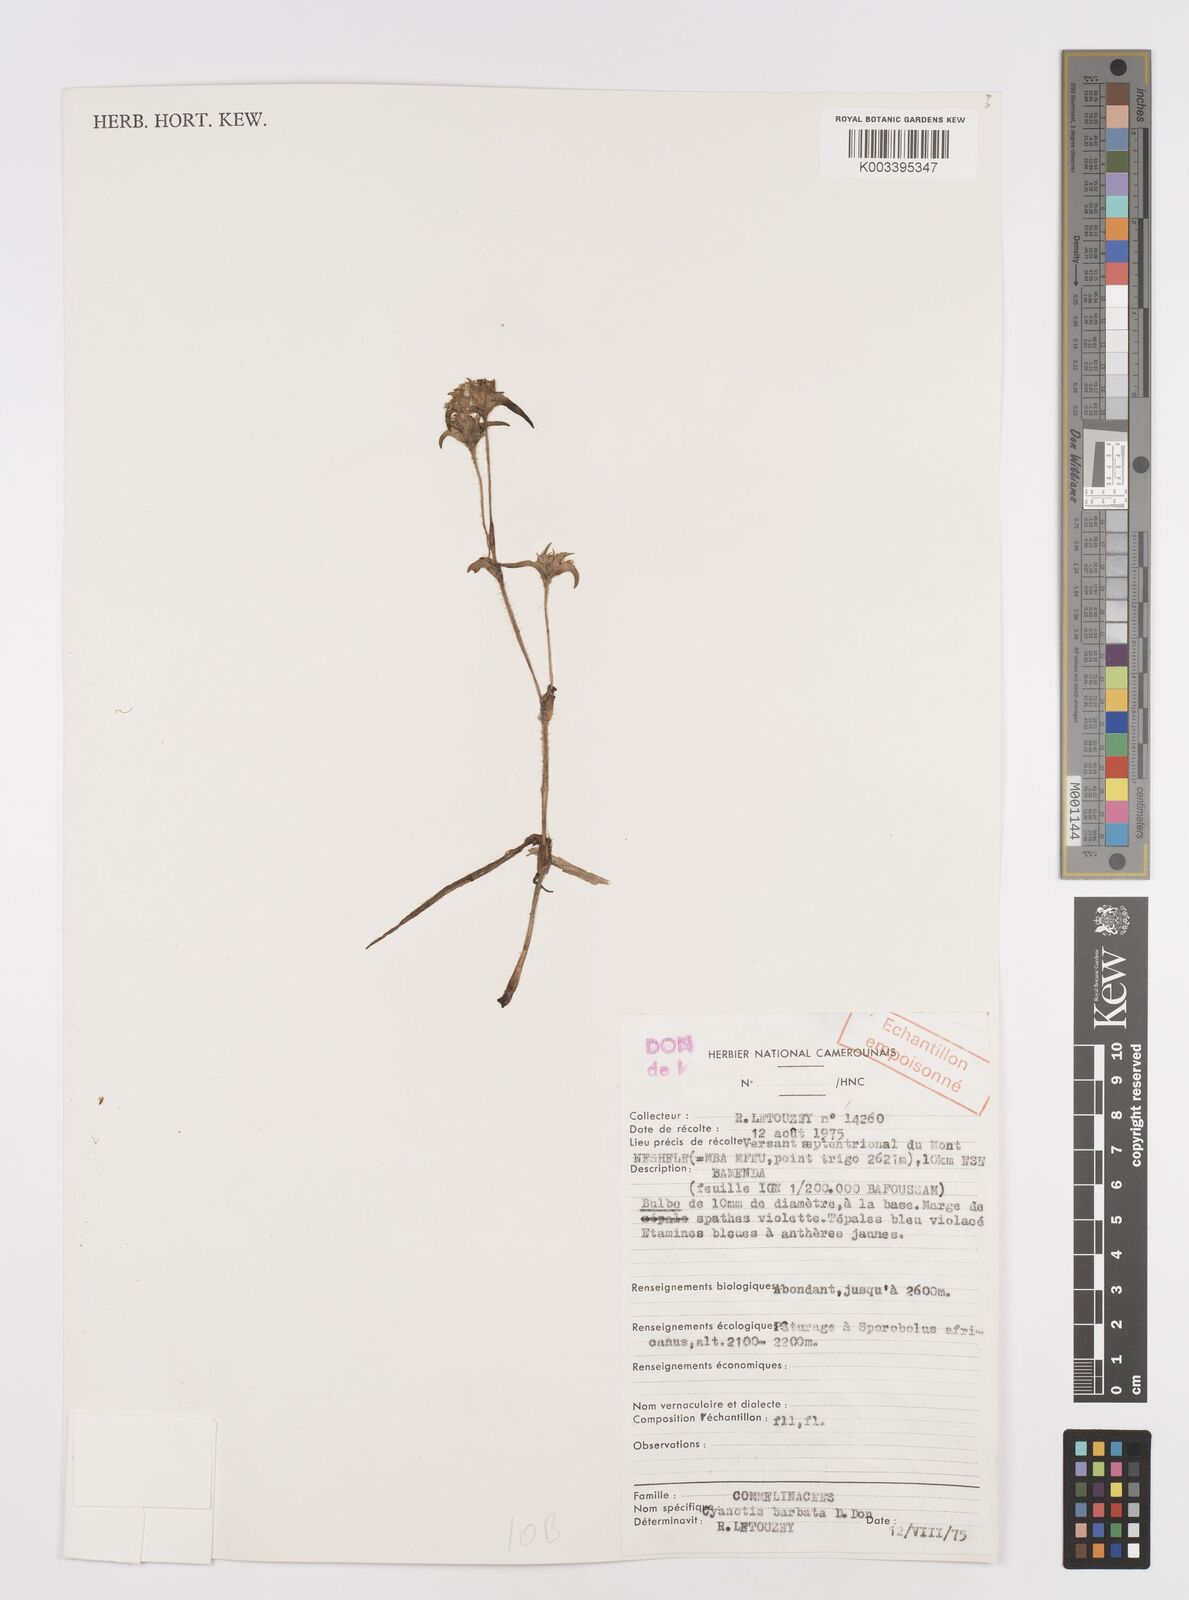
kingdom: Plantae
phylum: Tracheophyta
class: Liliopsida
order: Commelinales
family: Commelinaceae
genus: Cyanotis
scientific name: Cyanotis vaga
